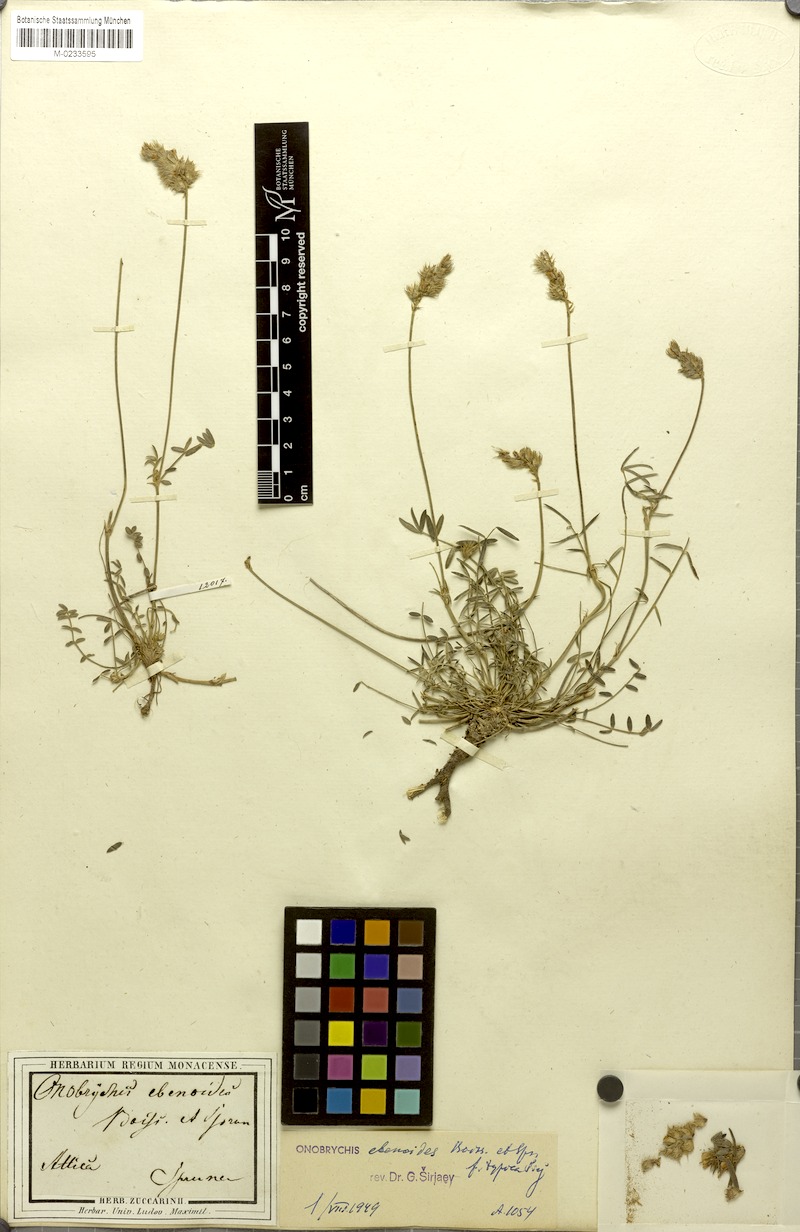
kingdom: Plantae
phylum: Tracheophyta
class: Magnoliopsida
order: Fabales
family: Fabaceae
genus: Onobrychis
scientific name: Onobrychis ebenoides
